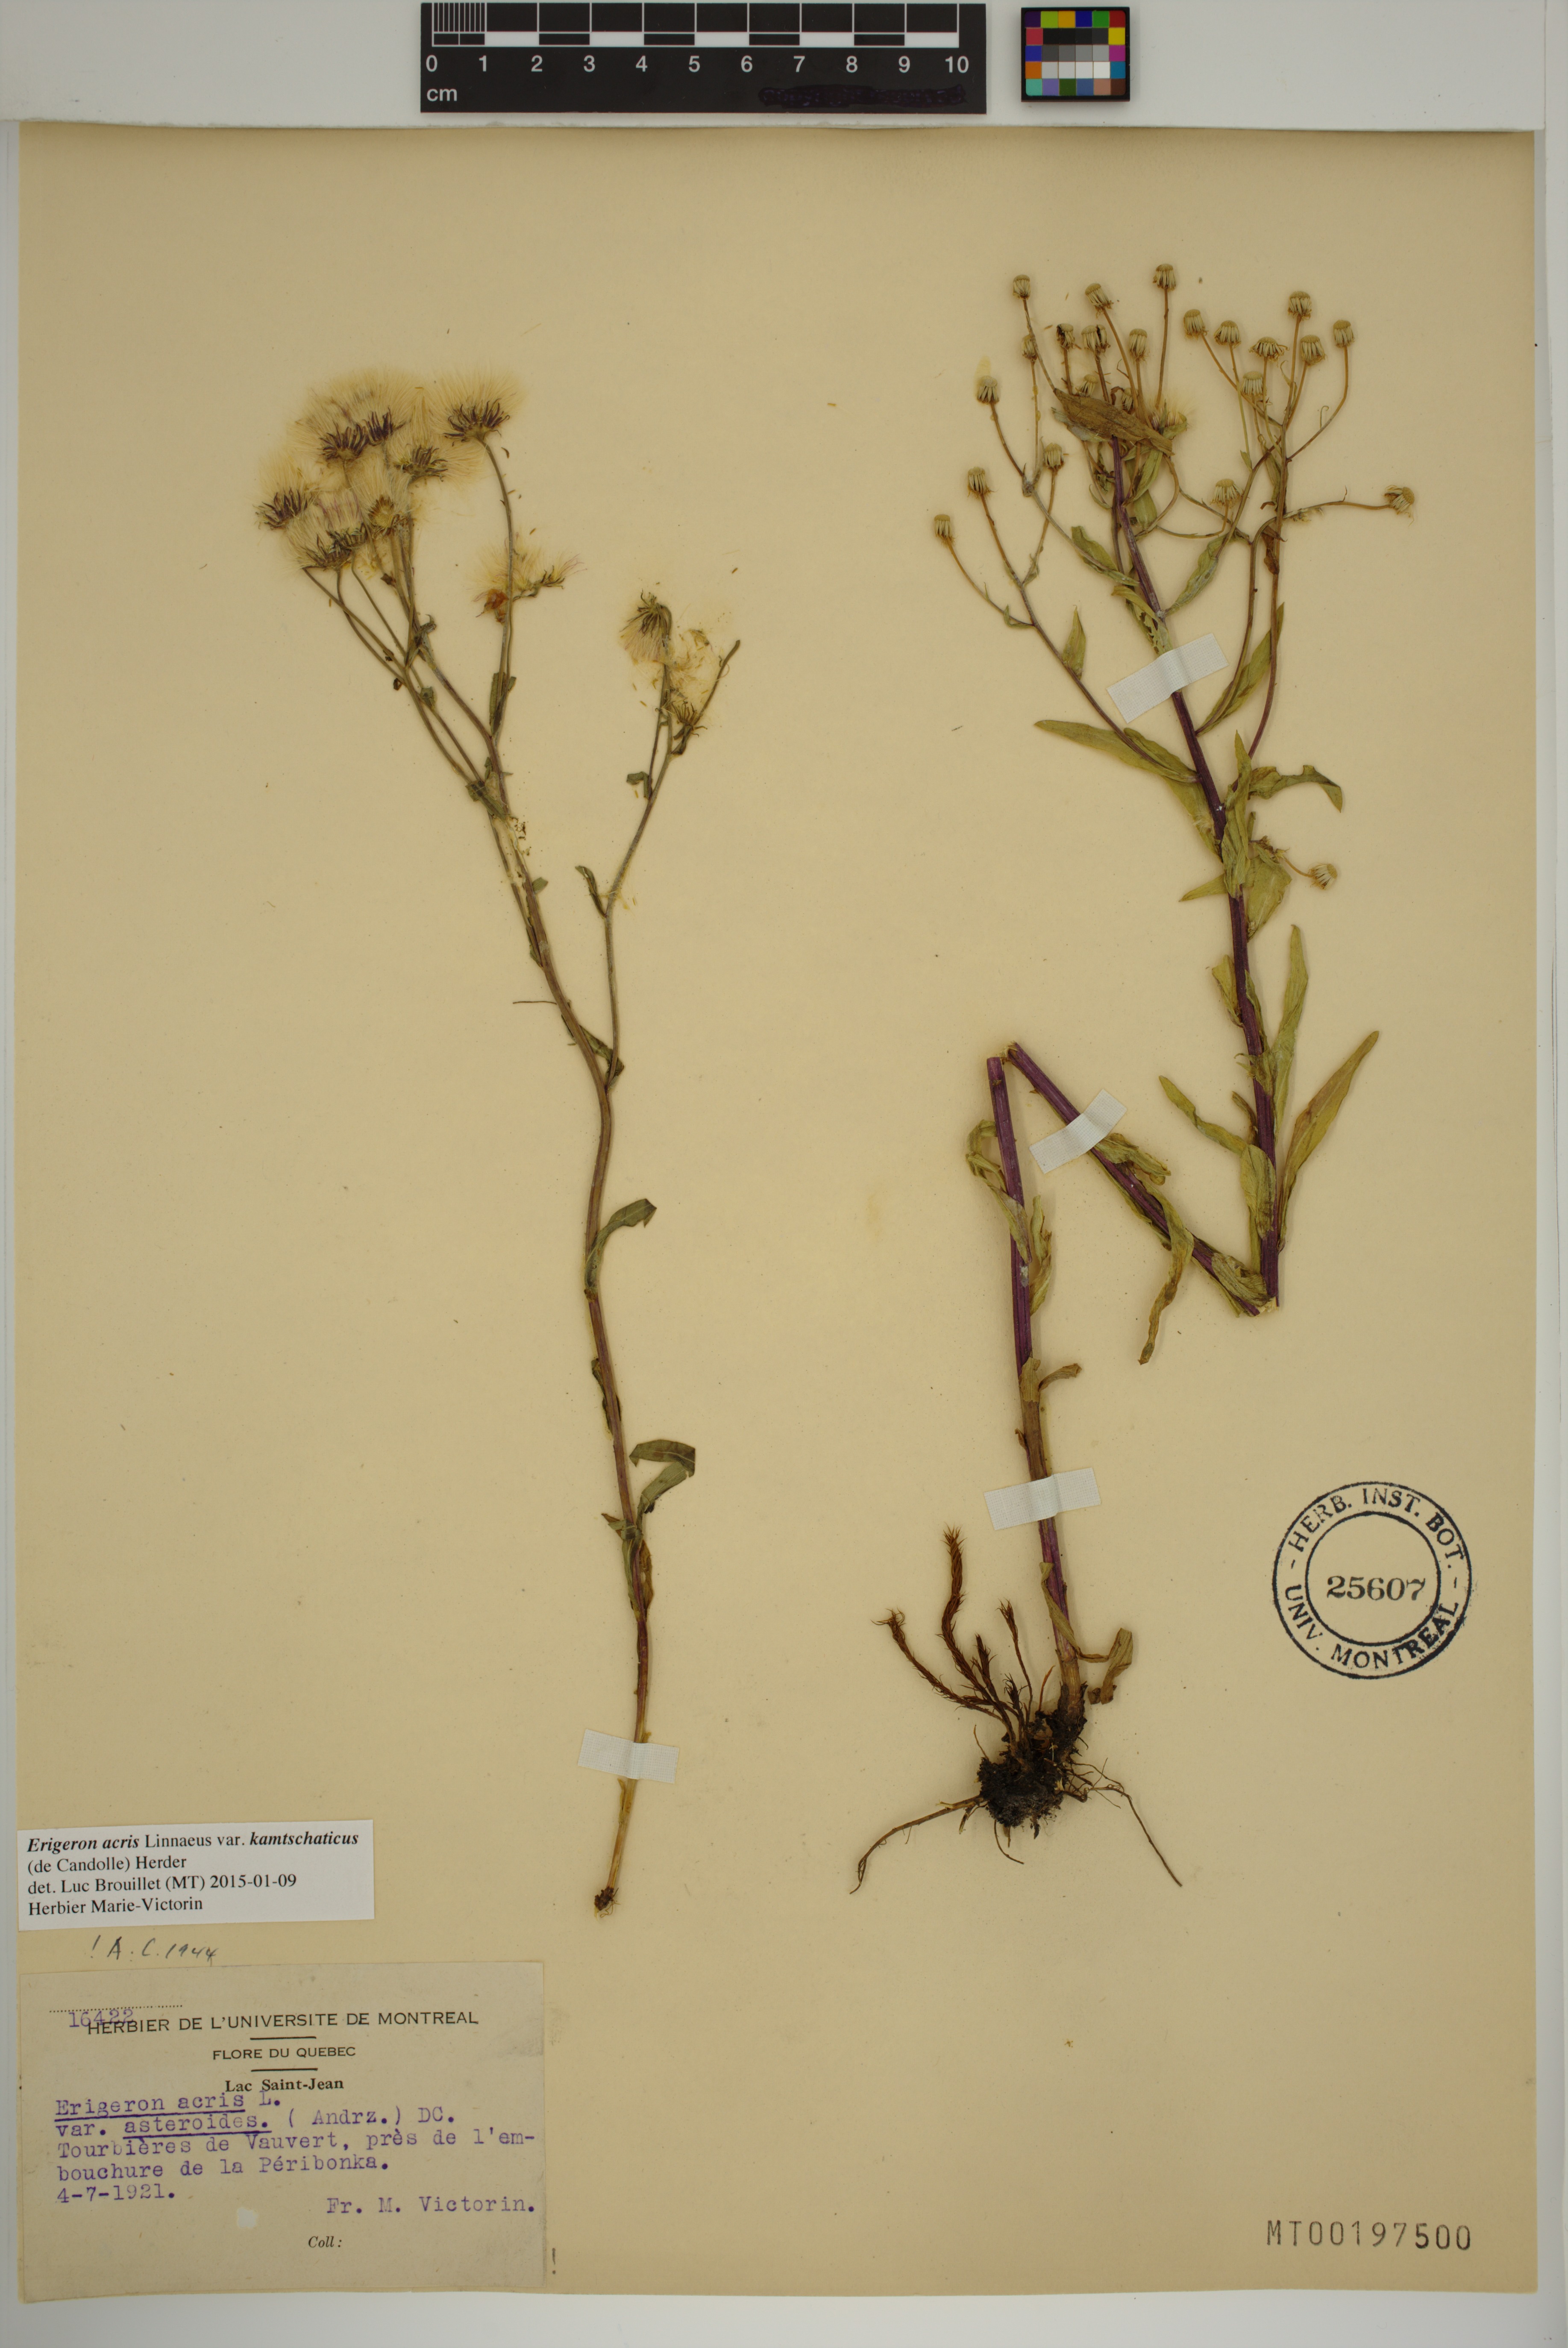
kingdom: Plantae
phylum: Tracheophyta
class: Magnoliopsida
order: Asterales
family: Asteraceae
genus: Erigeron
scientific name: Erigeron kamtschaticus
